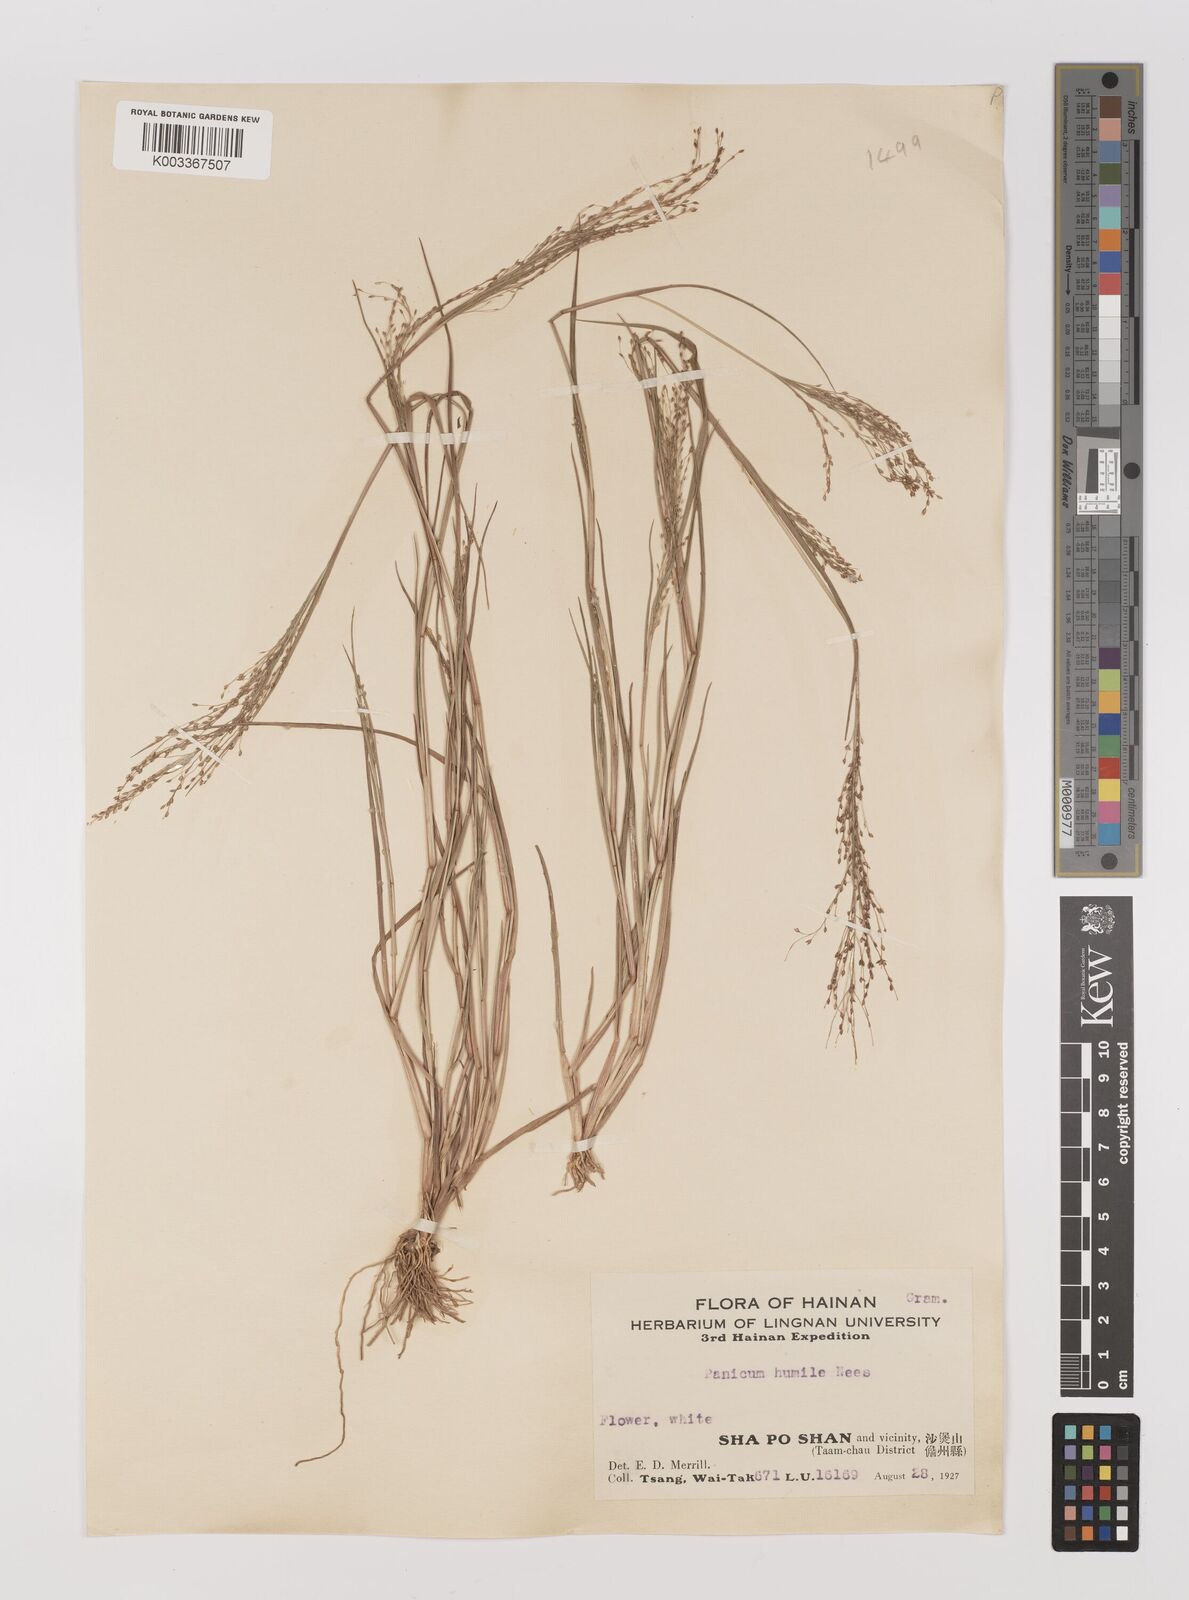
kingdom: Plantae
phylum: Tracheophyta
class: Liliopsida
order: Poales
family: Poaceae
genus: Panicum
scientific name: Panicum
